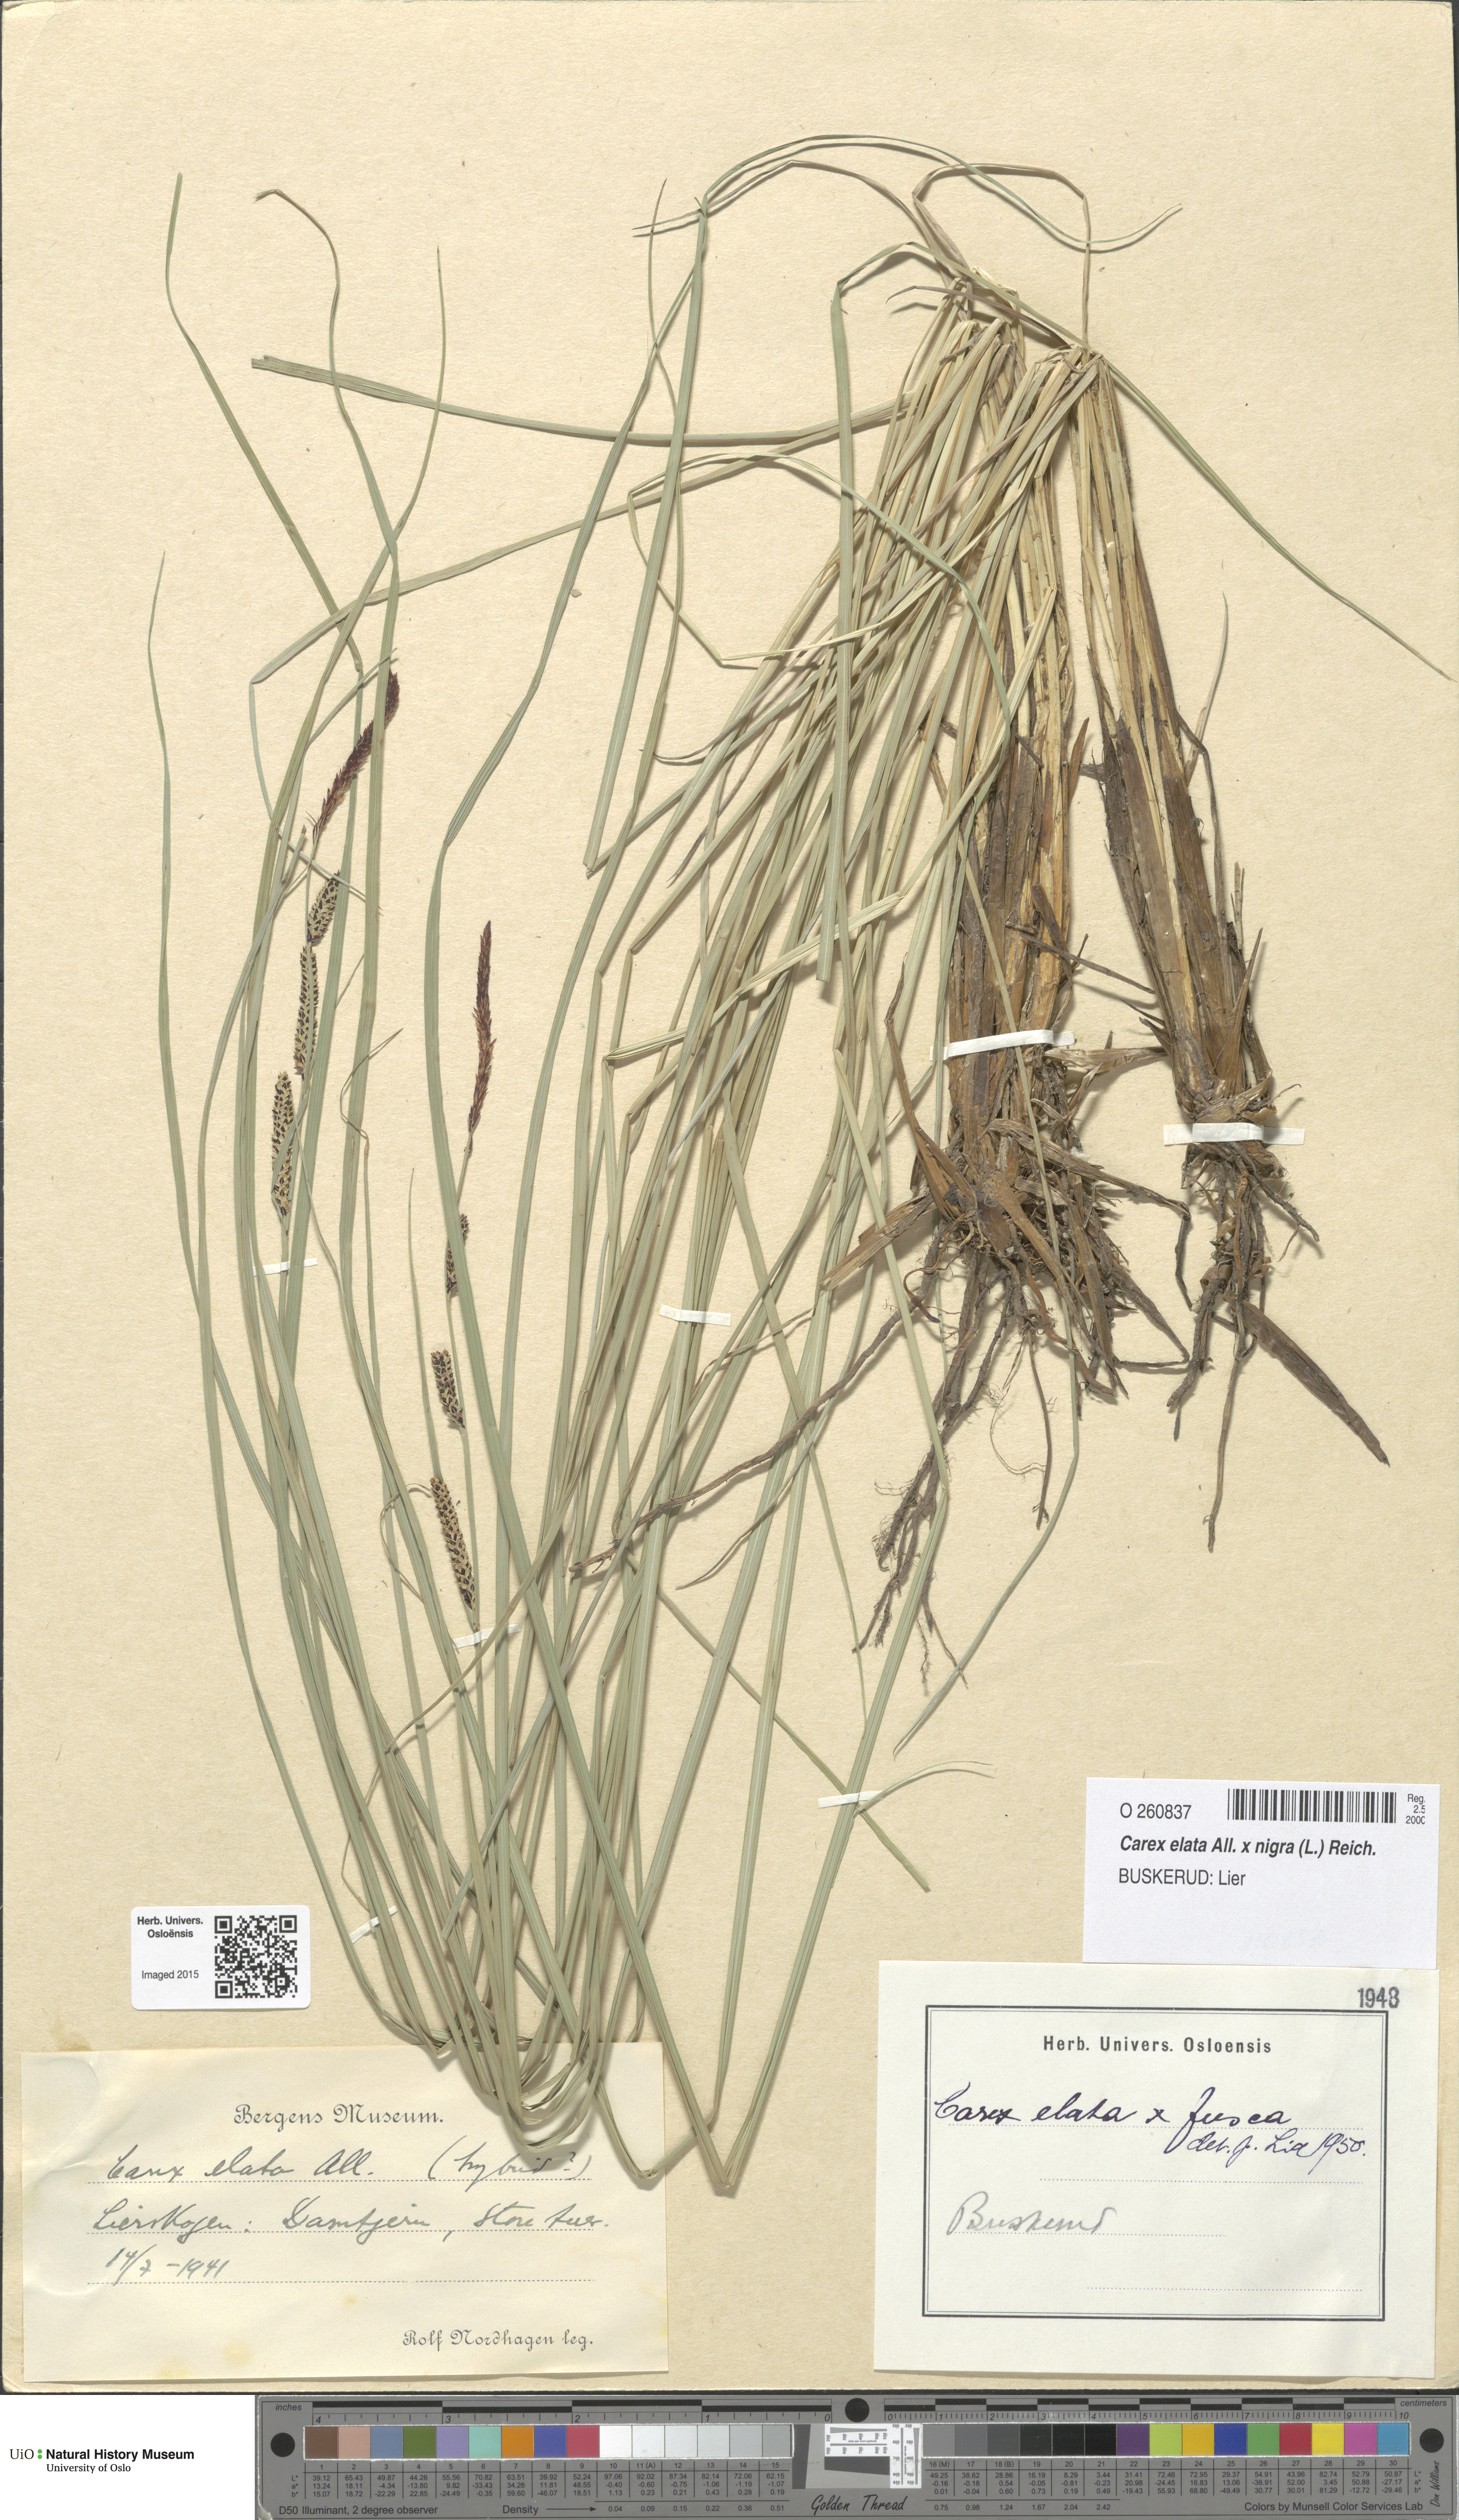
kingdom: Plantae
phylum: Tracheophyta
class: Liliopsida
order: Poales
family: Cyperaceae
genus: Carex
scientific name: Carex
